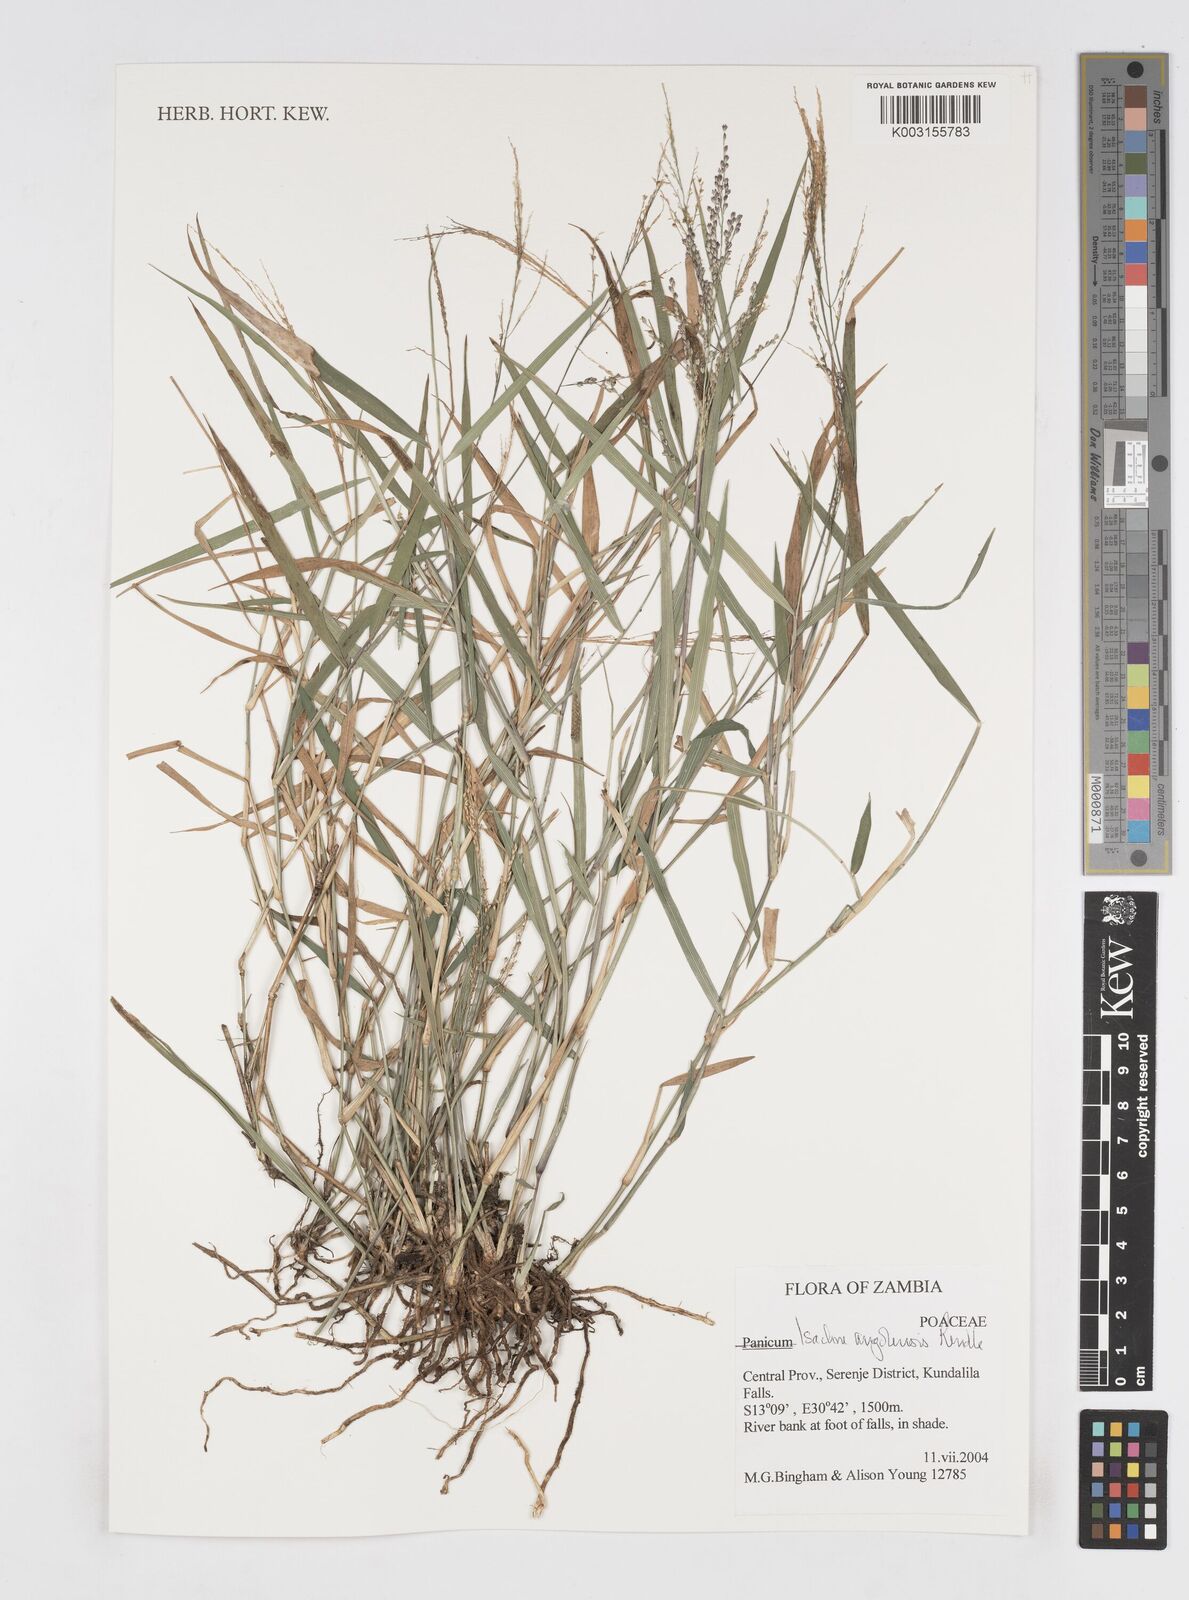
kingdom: Plantae
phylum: Tracheophyta
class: Liliopsida
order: Poales
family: Poaceae
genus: Isachne
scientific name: Isachne angolensis
